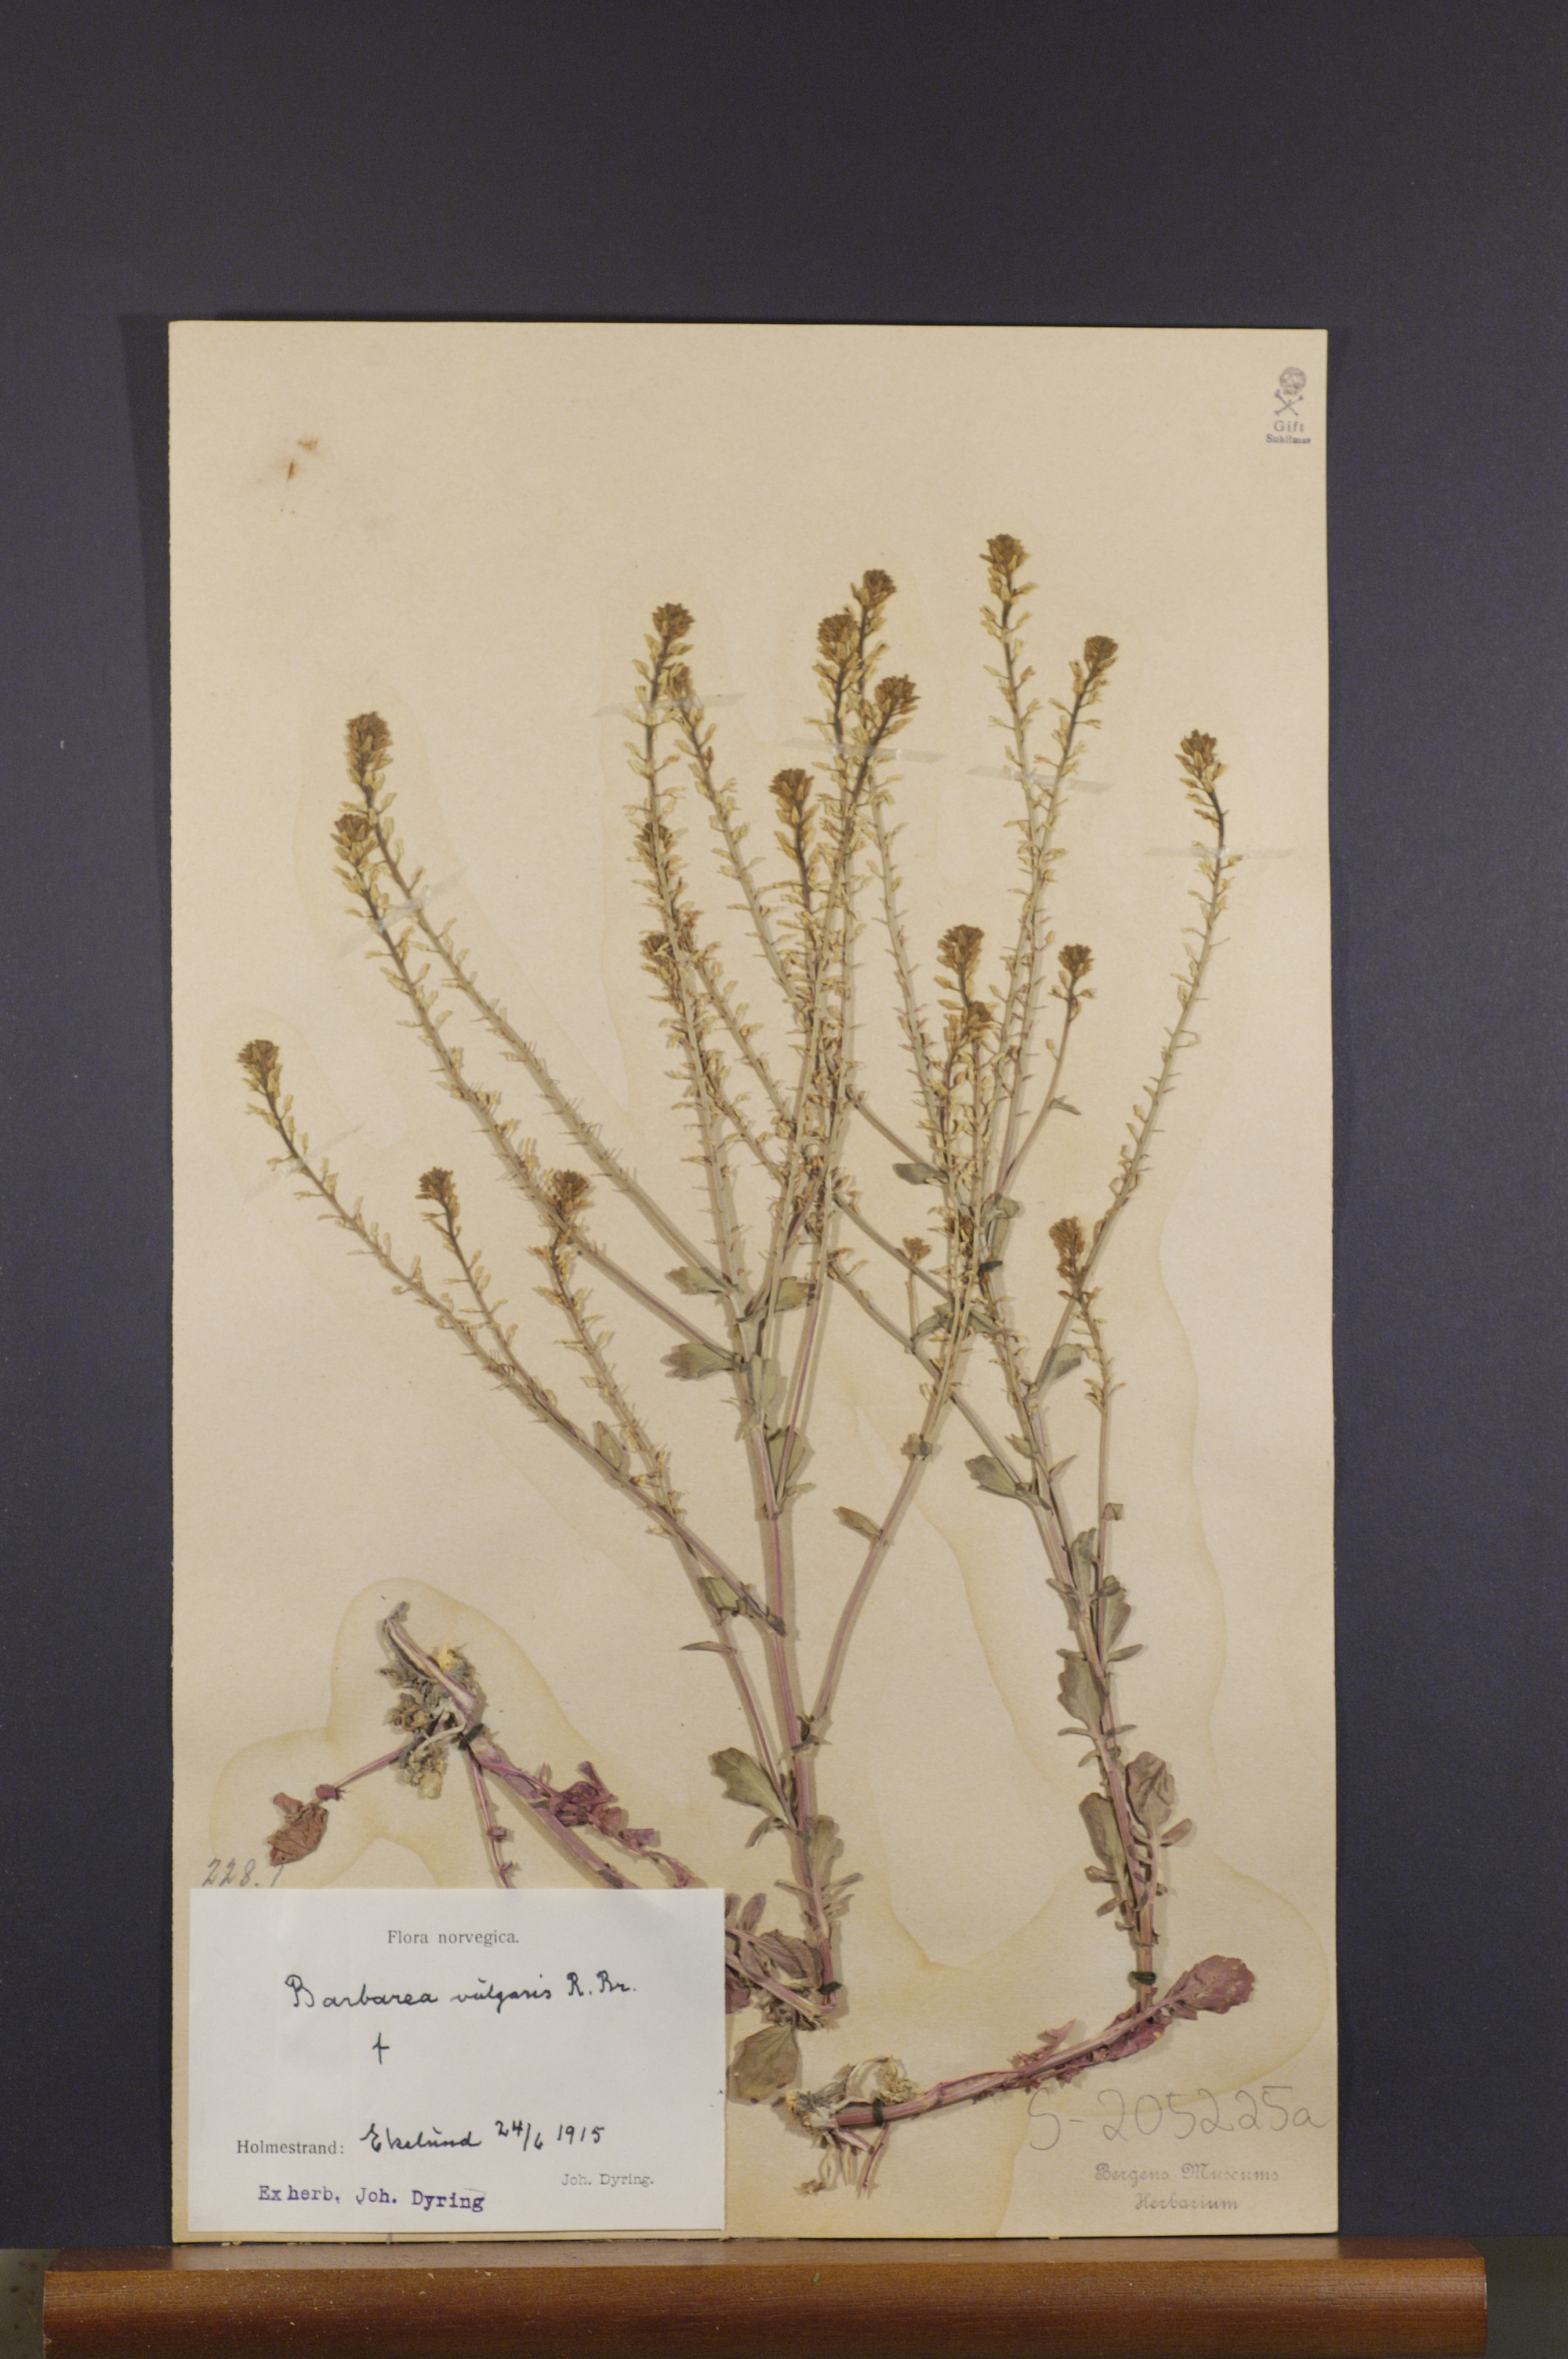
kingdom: Plantae
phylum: Tracheophyta
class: Magnoliopsida
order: Brassicales
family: Brassicaceae
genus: Barbarea
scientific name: Barbarea vulgaris
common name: Cressy-greens
